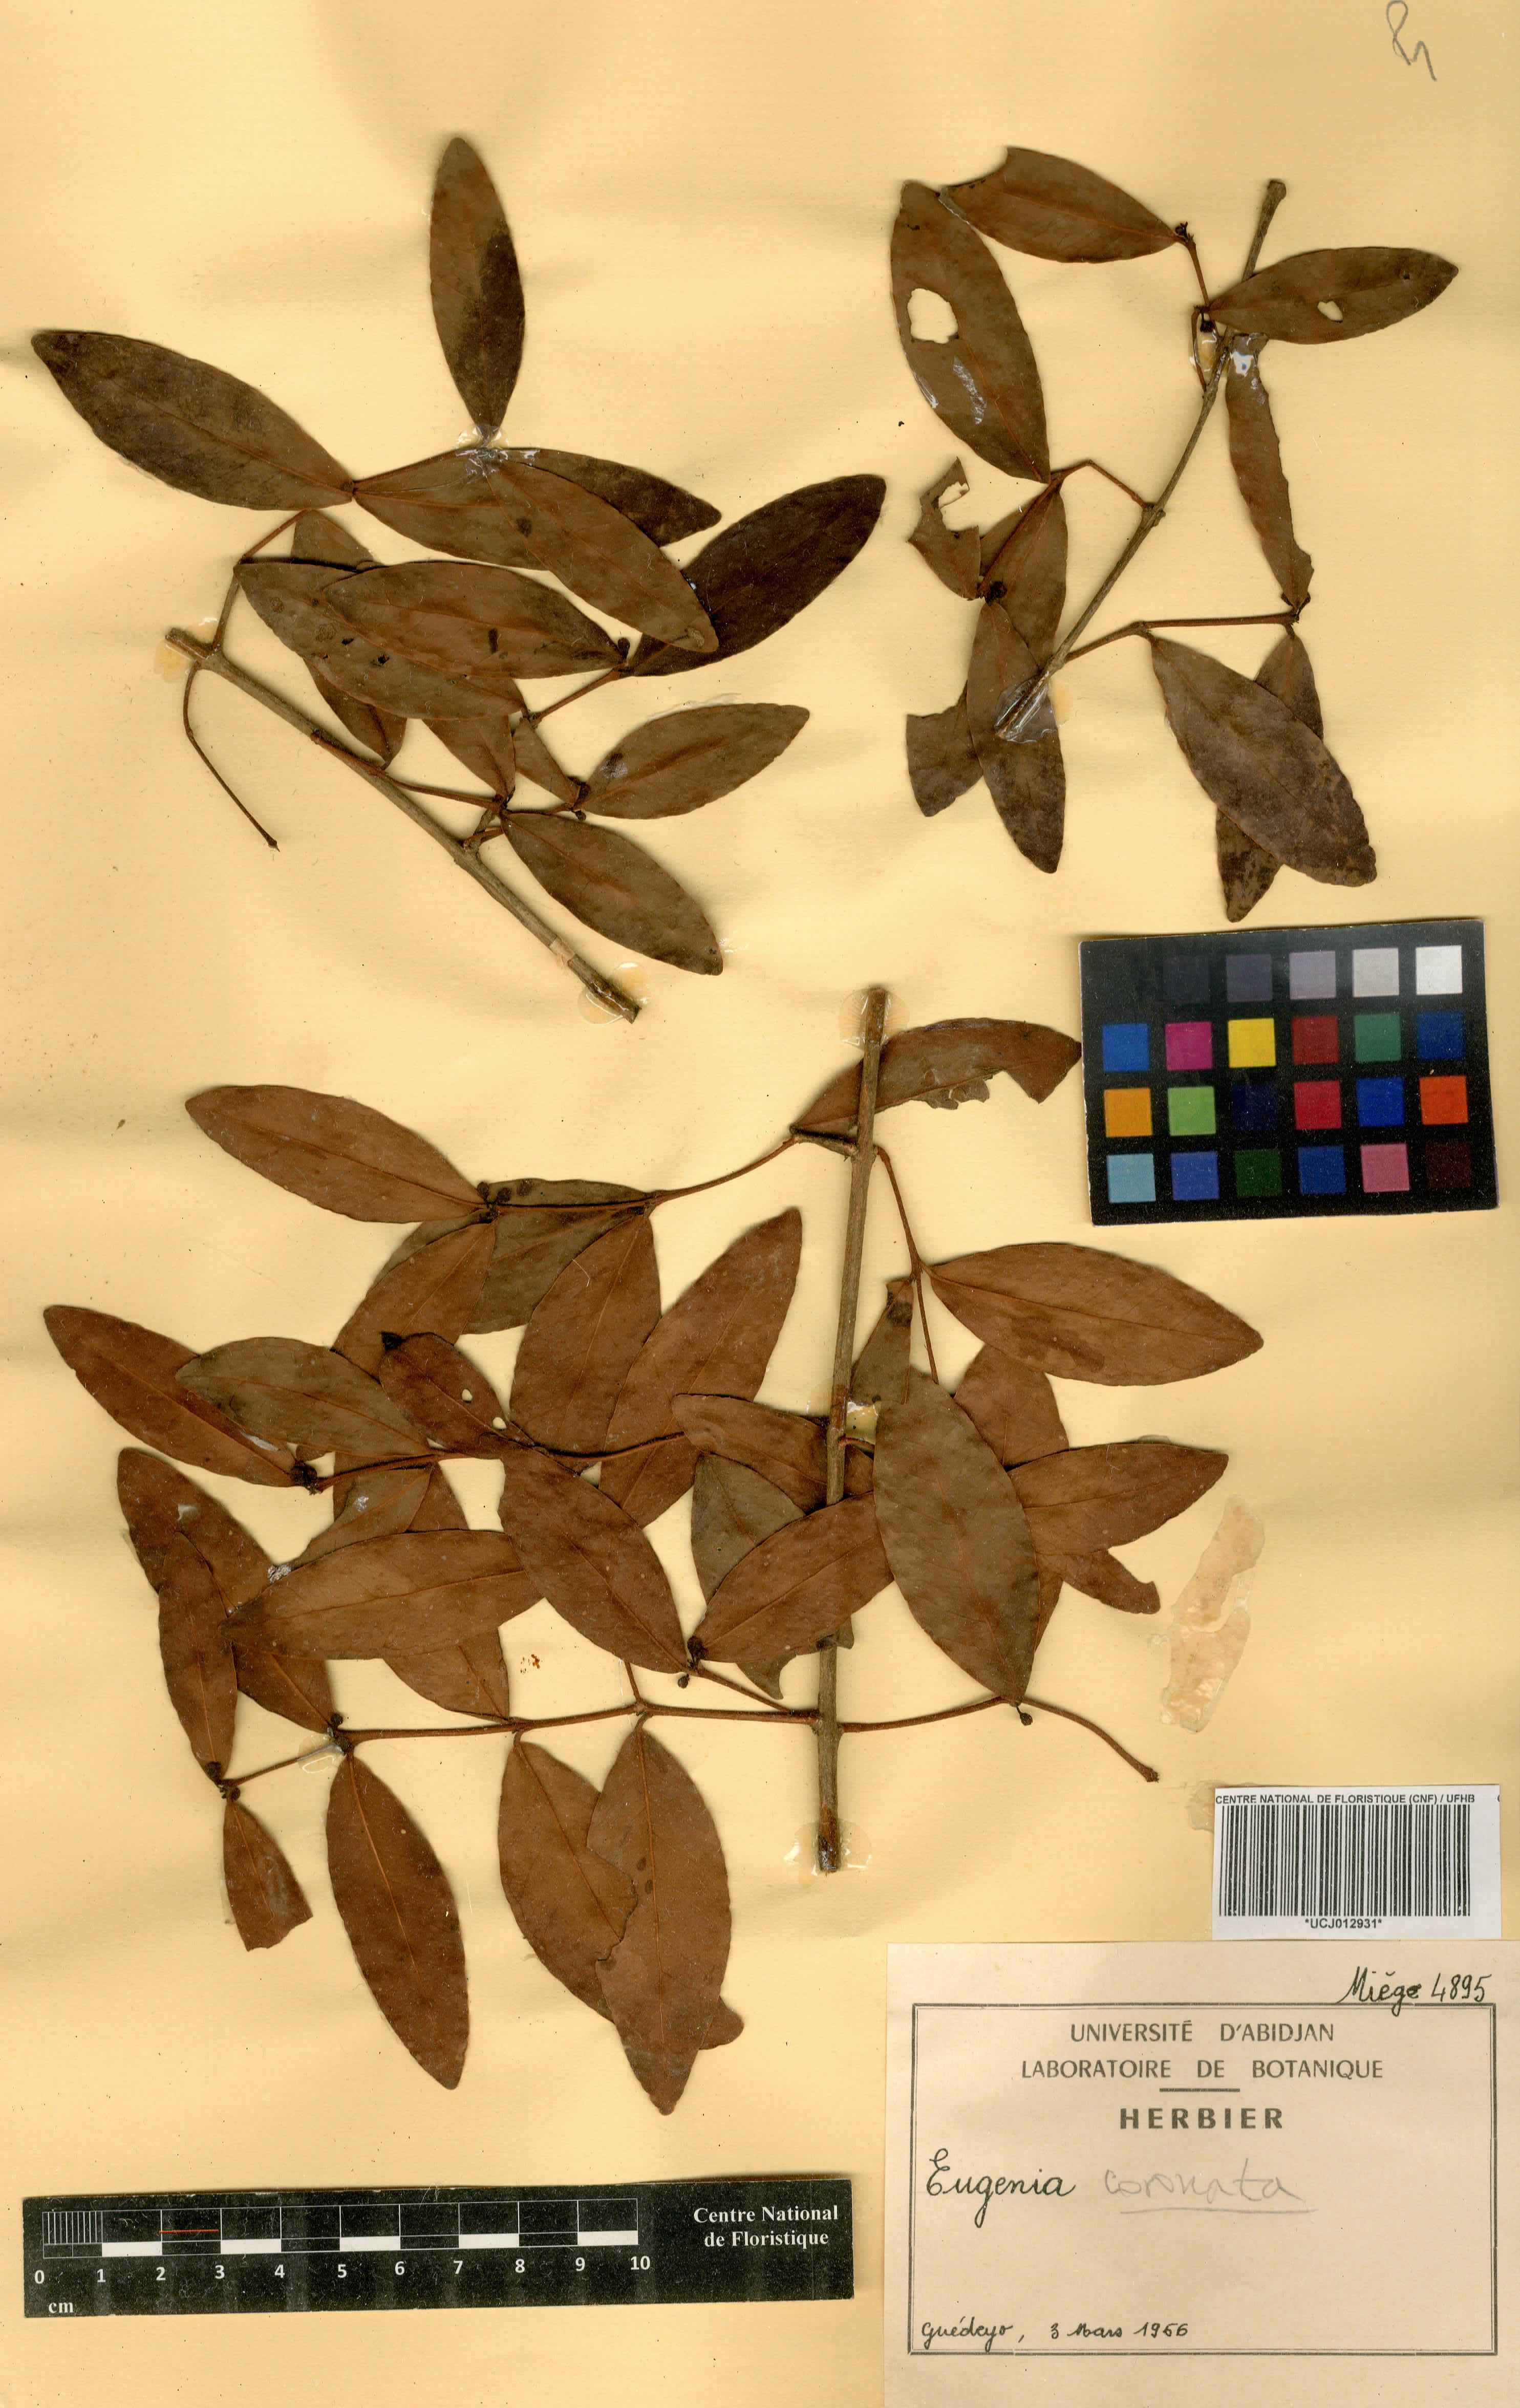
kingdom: Plantae
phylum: Tracheophyta
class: Magnoliopsida
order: Myrtales
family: Myrtaceae
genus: Eugenia
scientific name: Eugenia coronata
